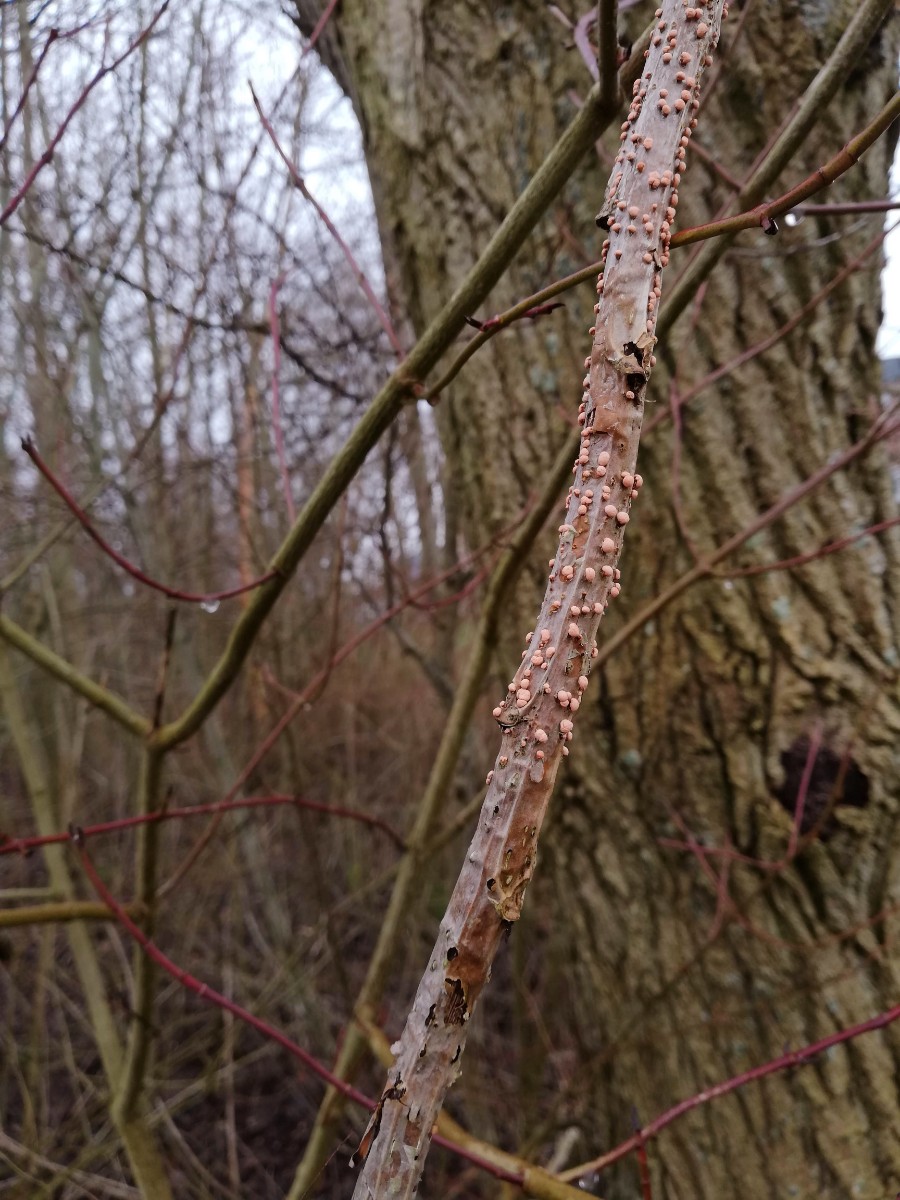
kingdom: Fungi
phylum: Ascomycota
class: Sordariomycetes
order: Hypocreales
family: Nectriaceae
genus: Nectria
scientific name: Nectria cinnabarina
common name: almindelig cinnobersvamp
